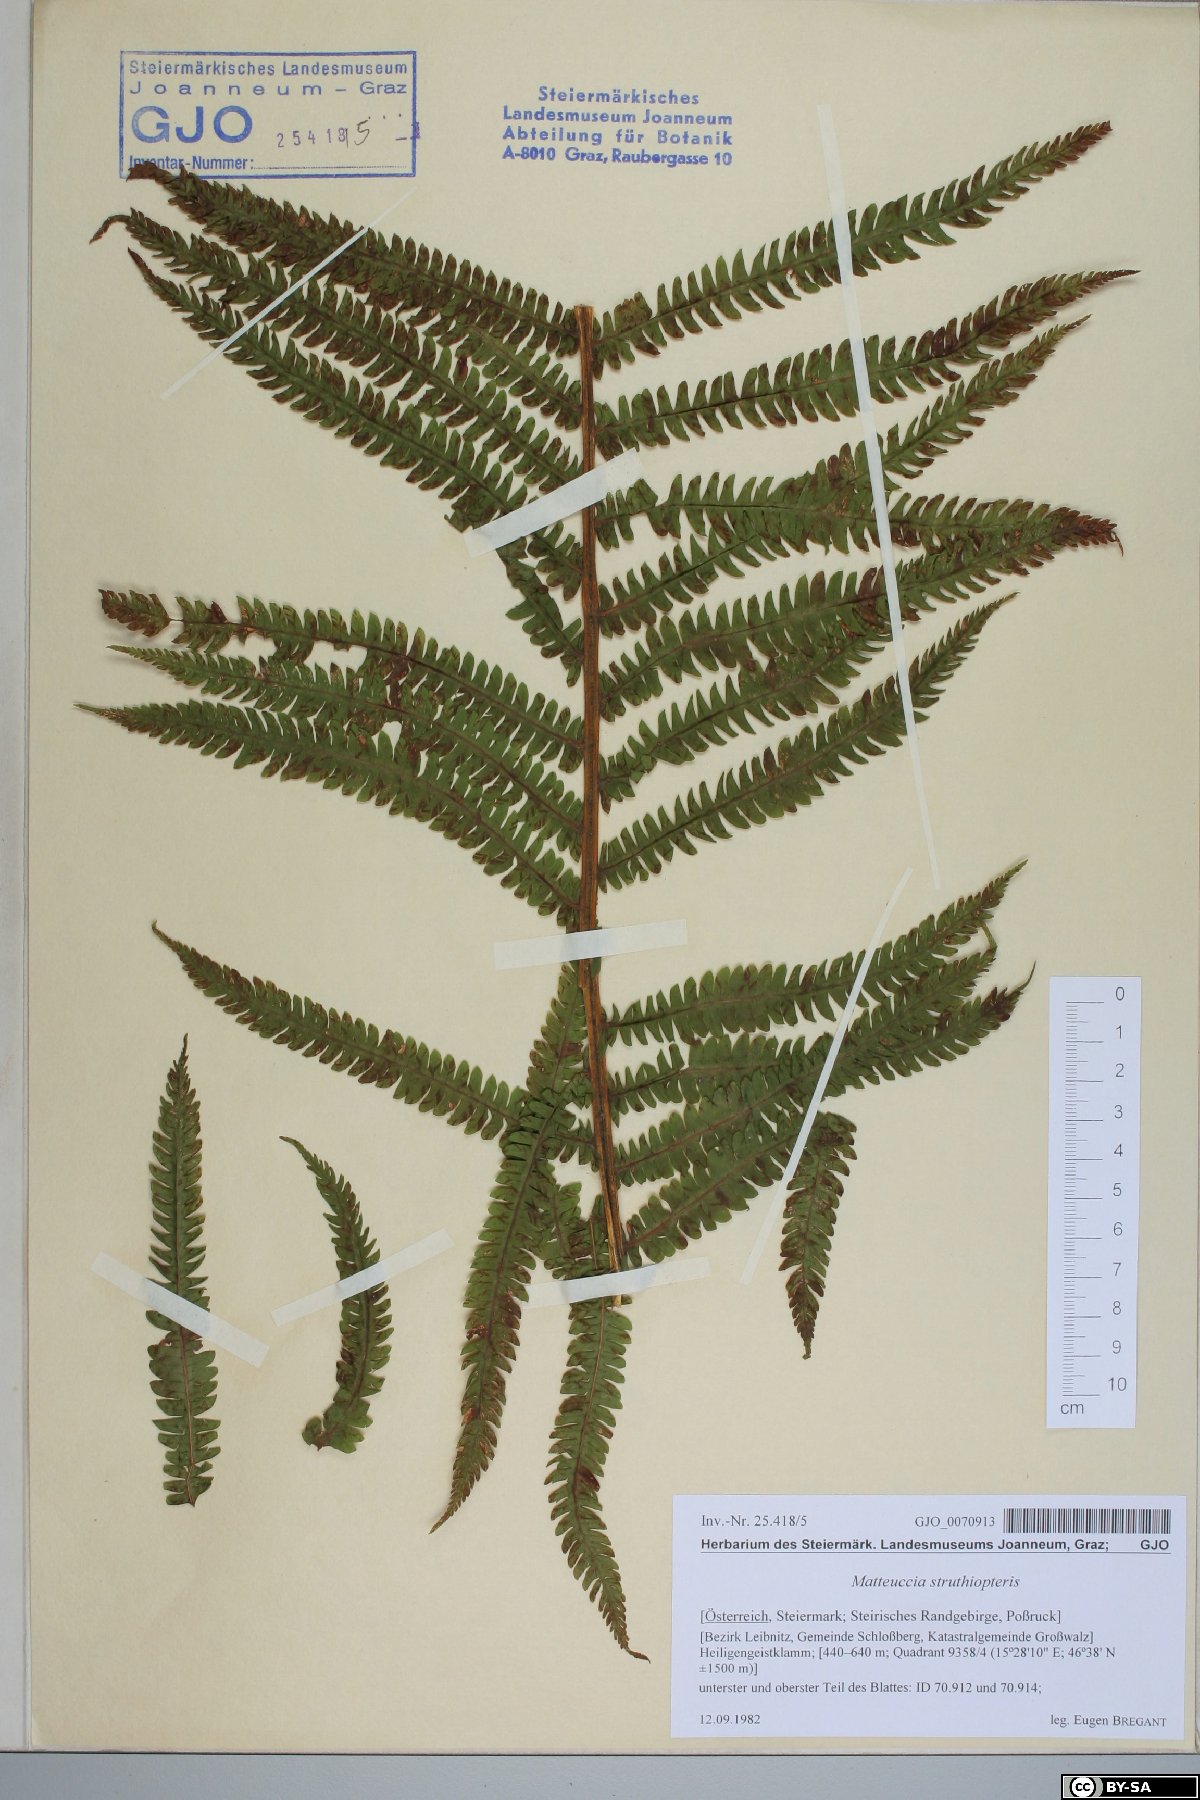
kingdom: Plantae
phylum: Tracheophyta
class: Polypodiopsida
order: Polypodiales
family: Onocleaceae
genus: Matteuccia
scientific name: Matteuccia struthiopteris
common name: Ostrich fern
